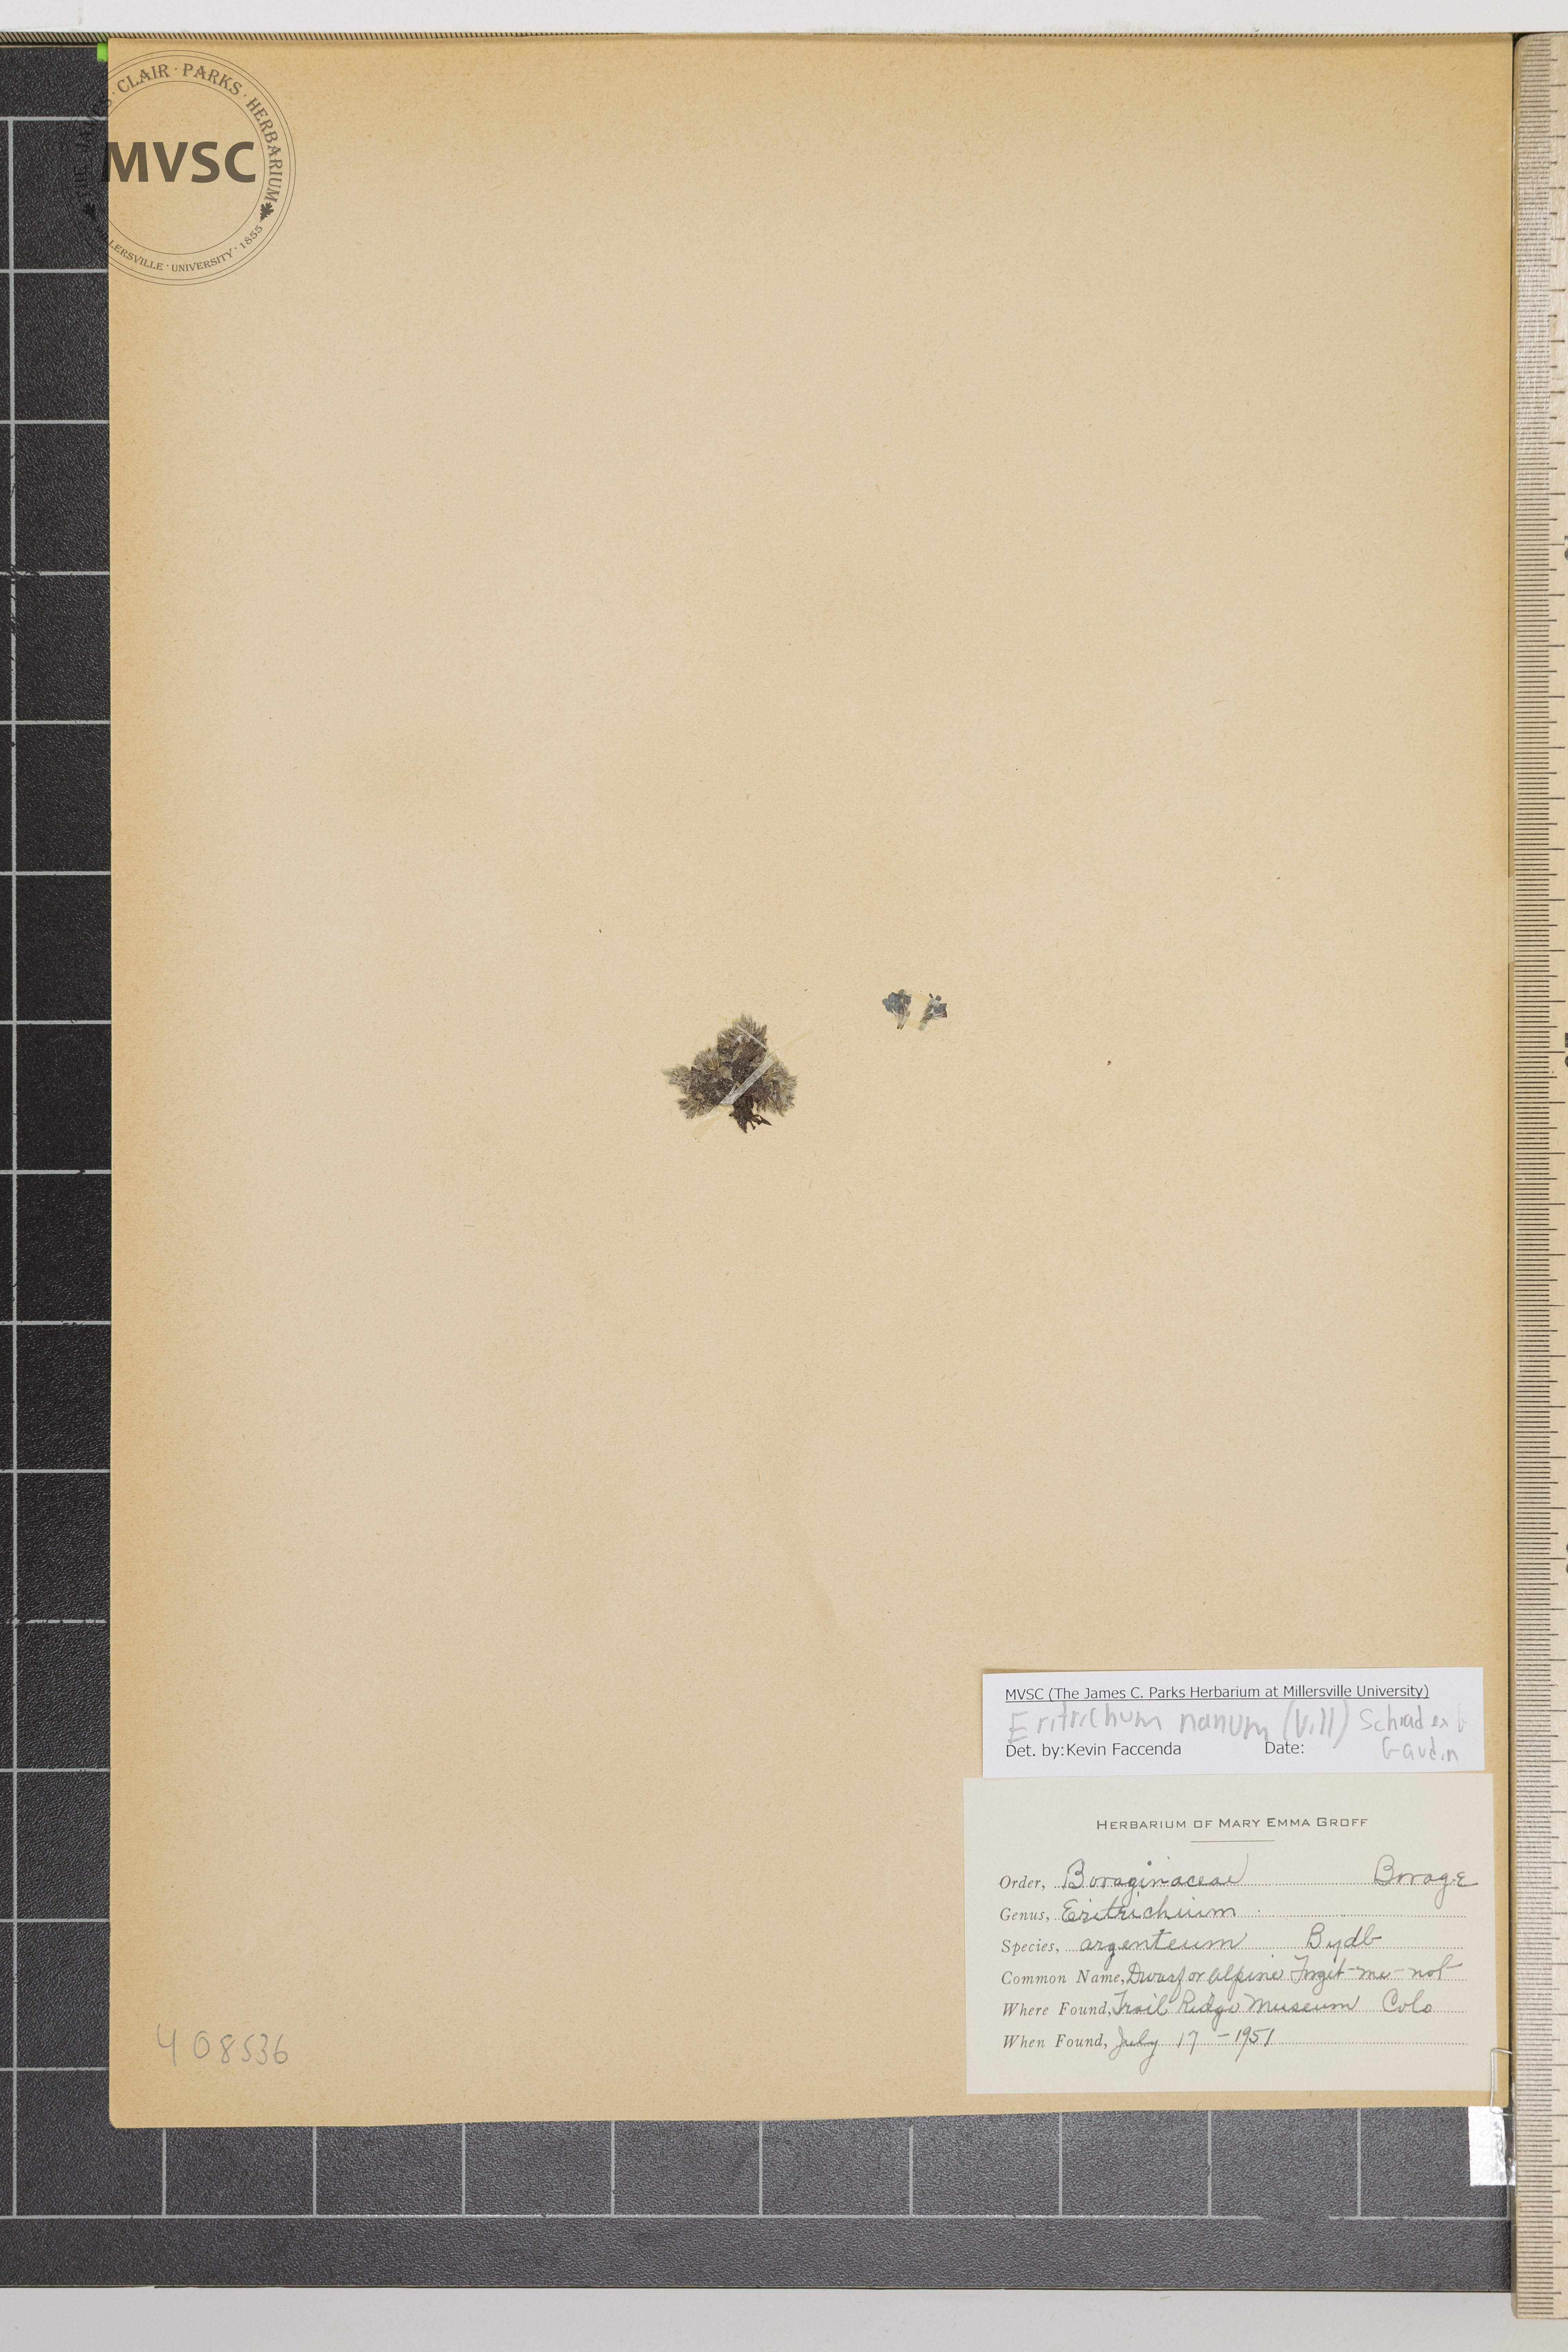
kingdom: Plantae
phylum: Tracheophyta
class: Magnoliopsida
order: Boraginales
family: Boraginaceae
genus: Eritrichium
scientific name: Eritrichium nanum
